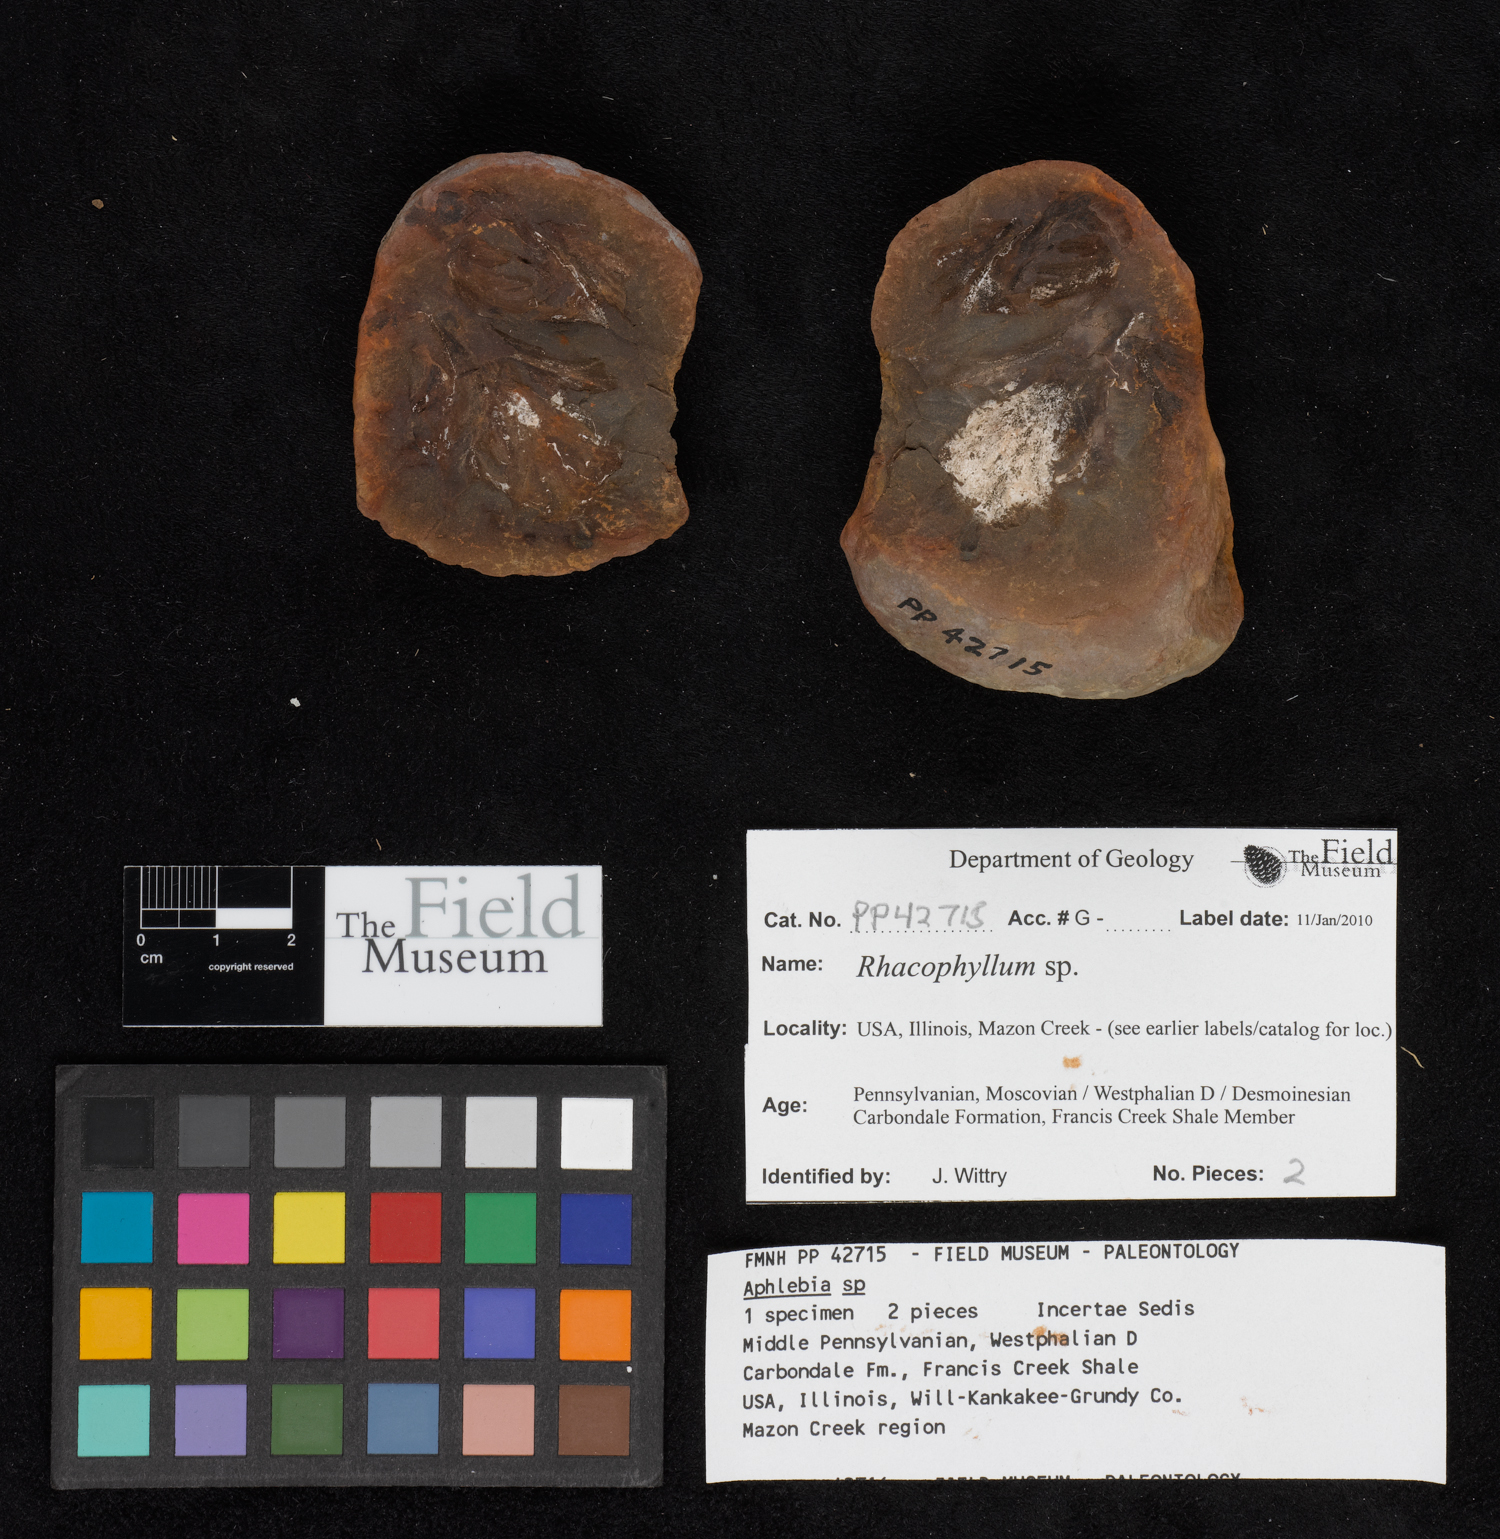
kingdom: Plantae
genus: Rhacophyllum
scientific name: Rhacophyllum
